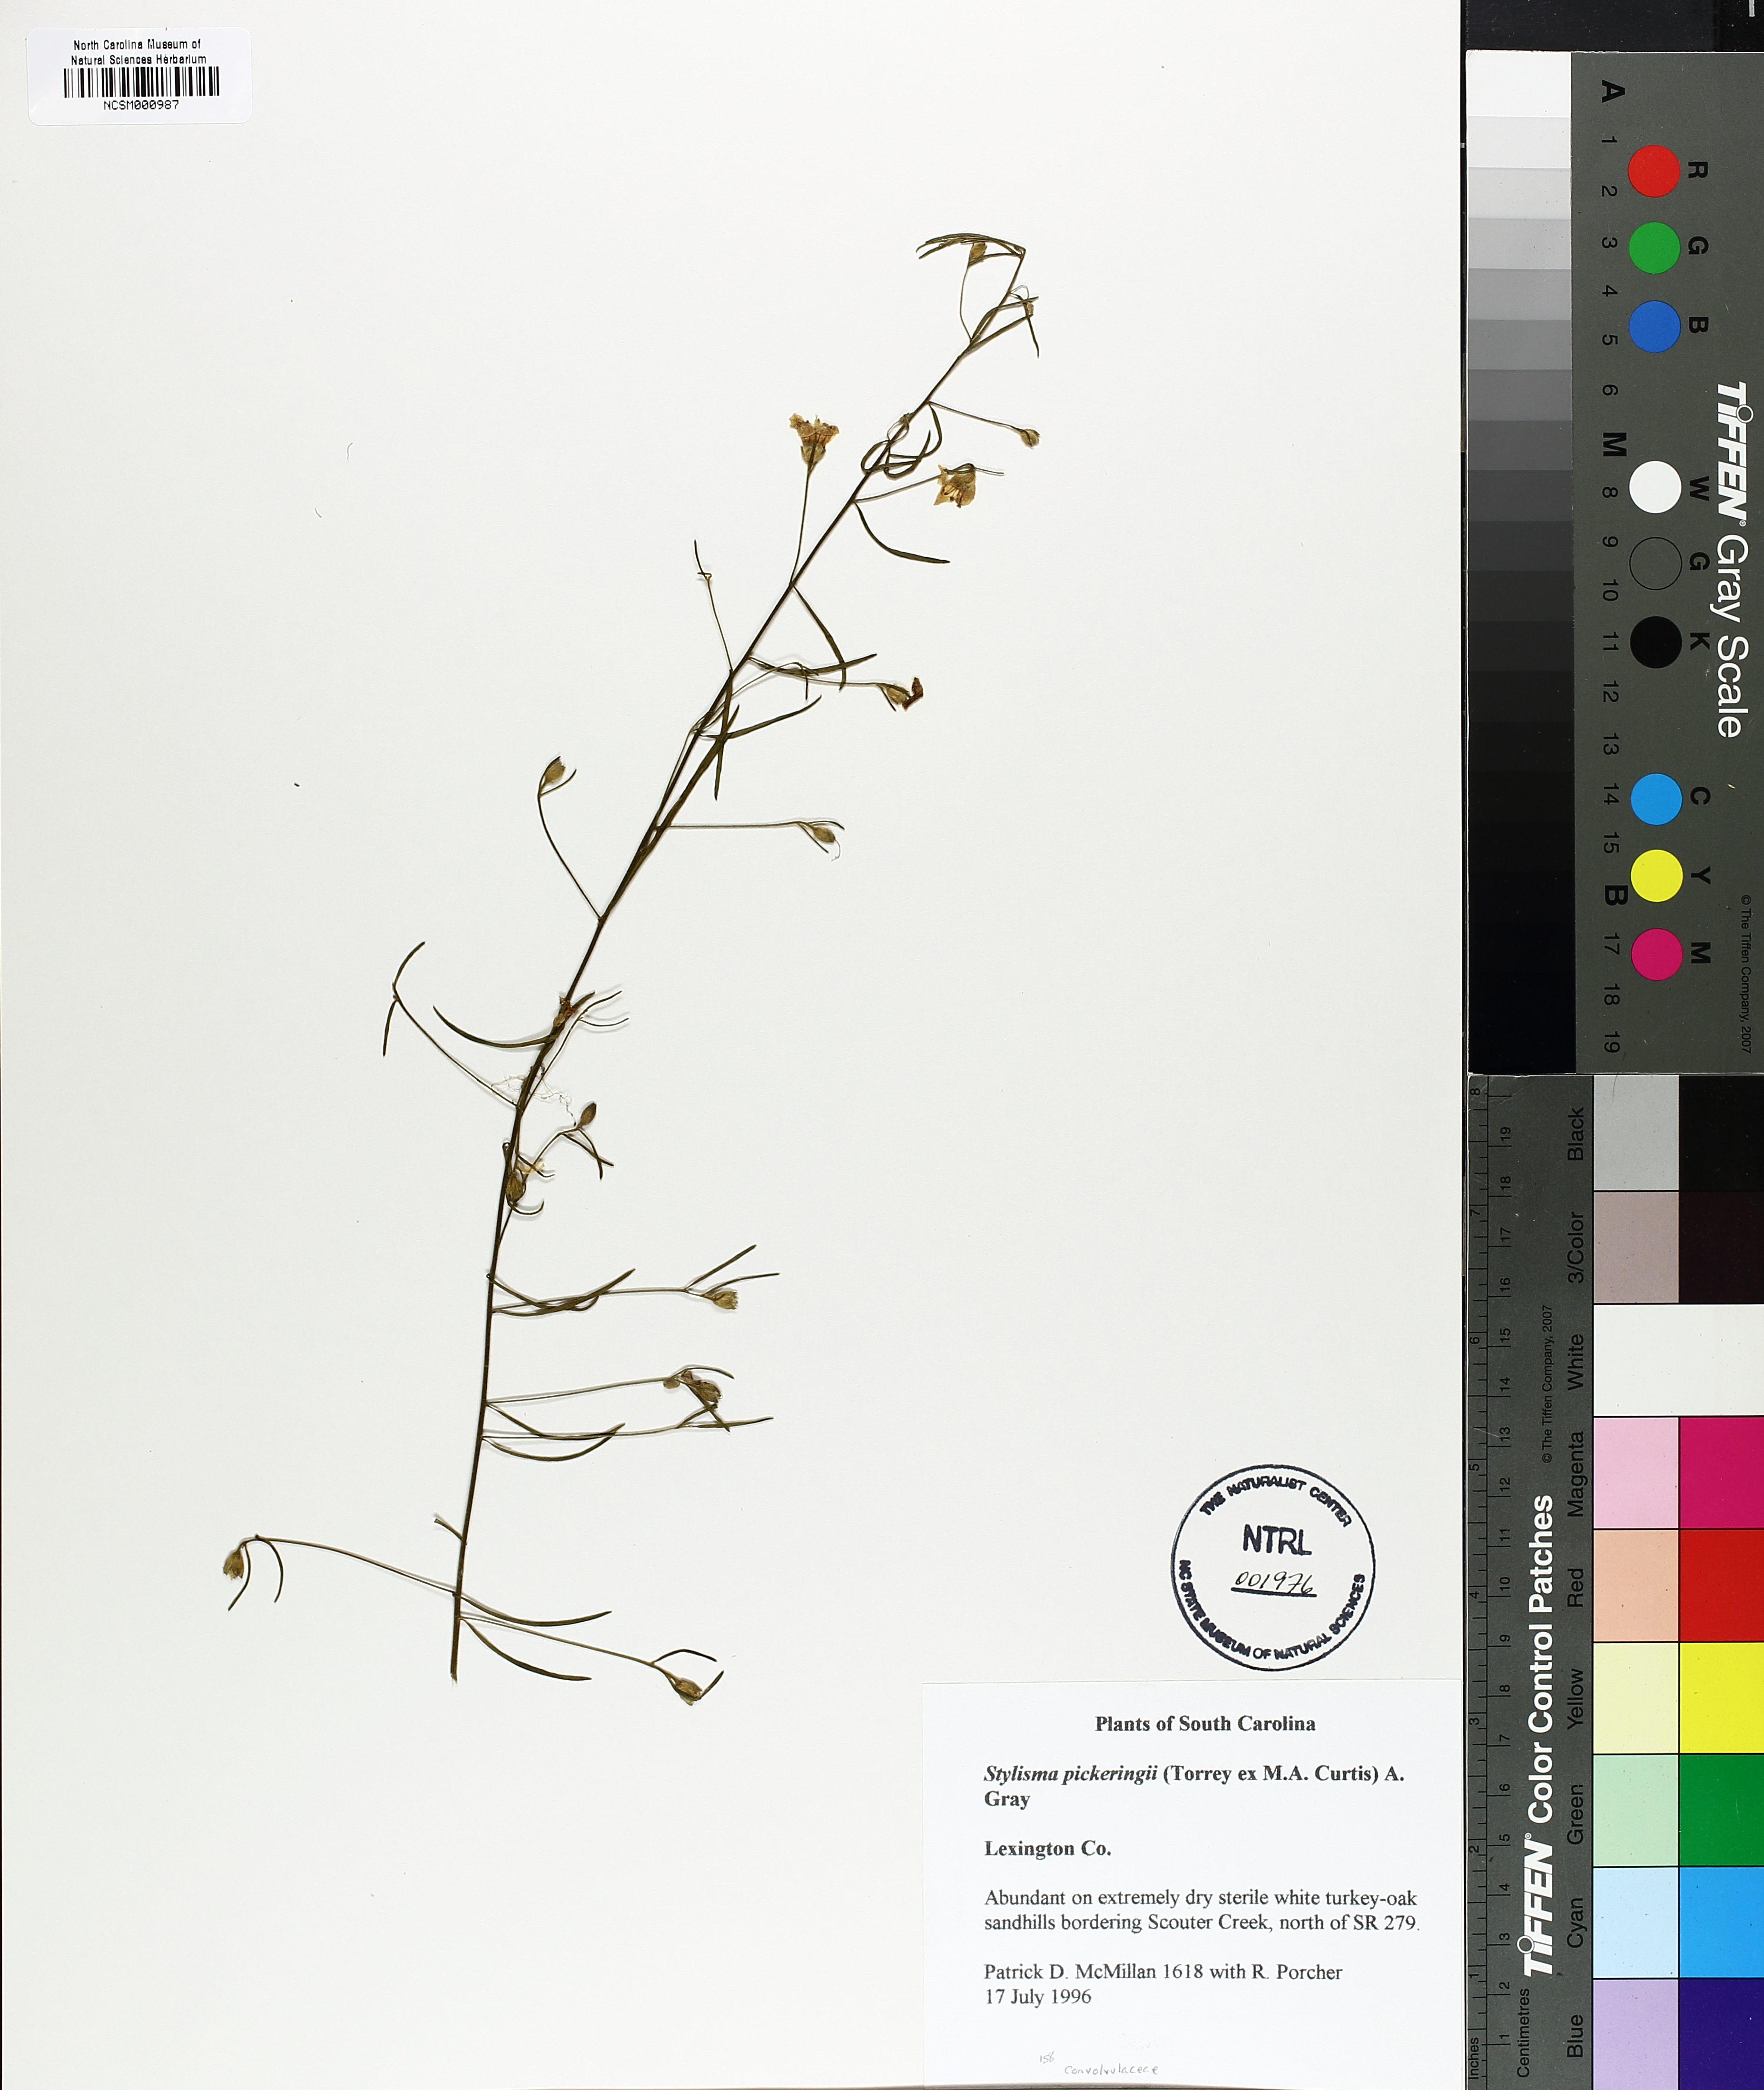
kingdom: Plantae
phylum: Tracheophyta
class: Magnoliopsida
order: Solanales
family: Convolvulaceae
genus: Stylisma
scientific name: Stylisma pickeringii
